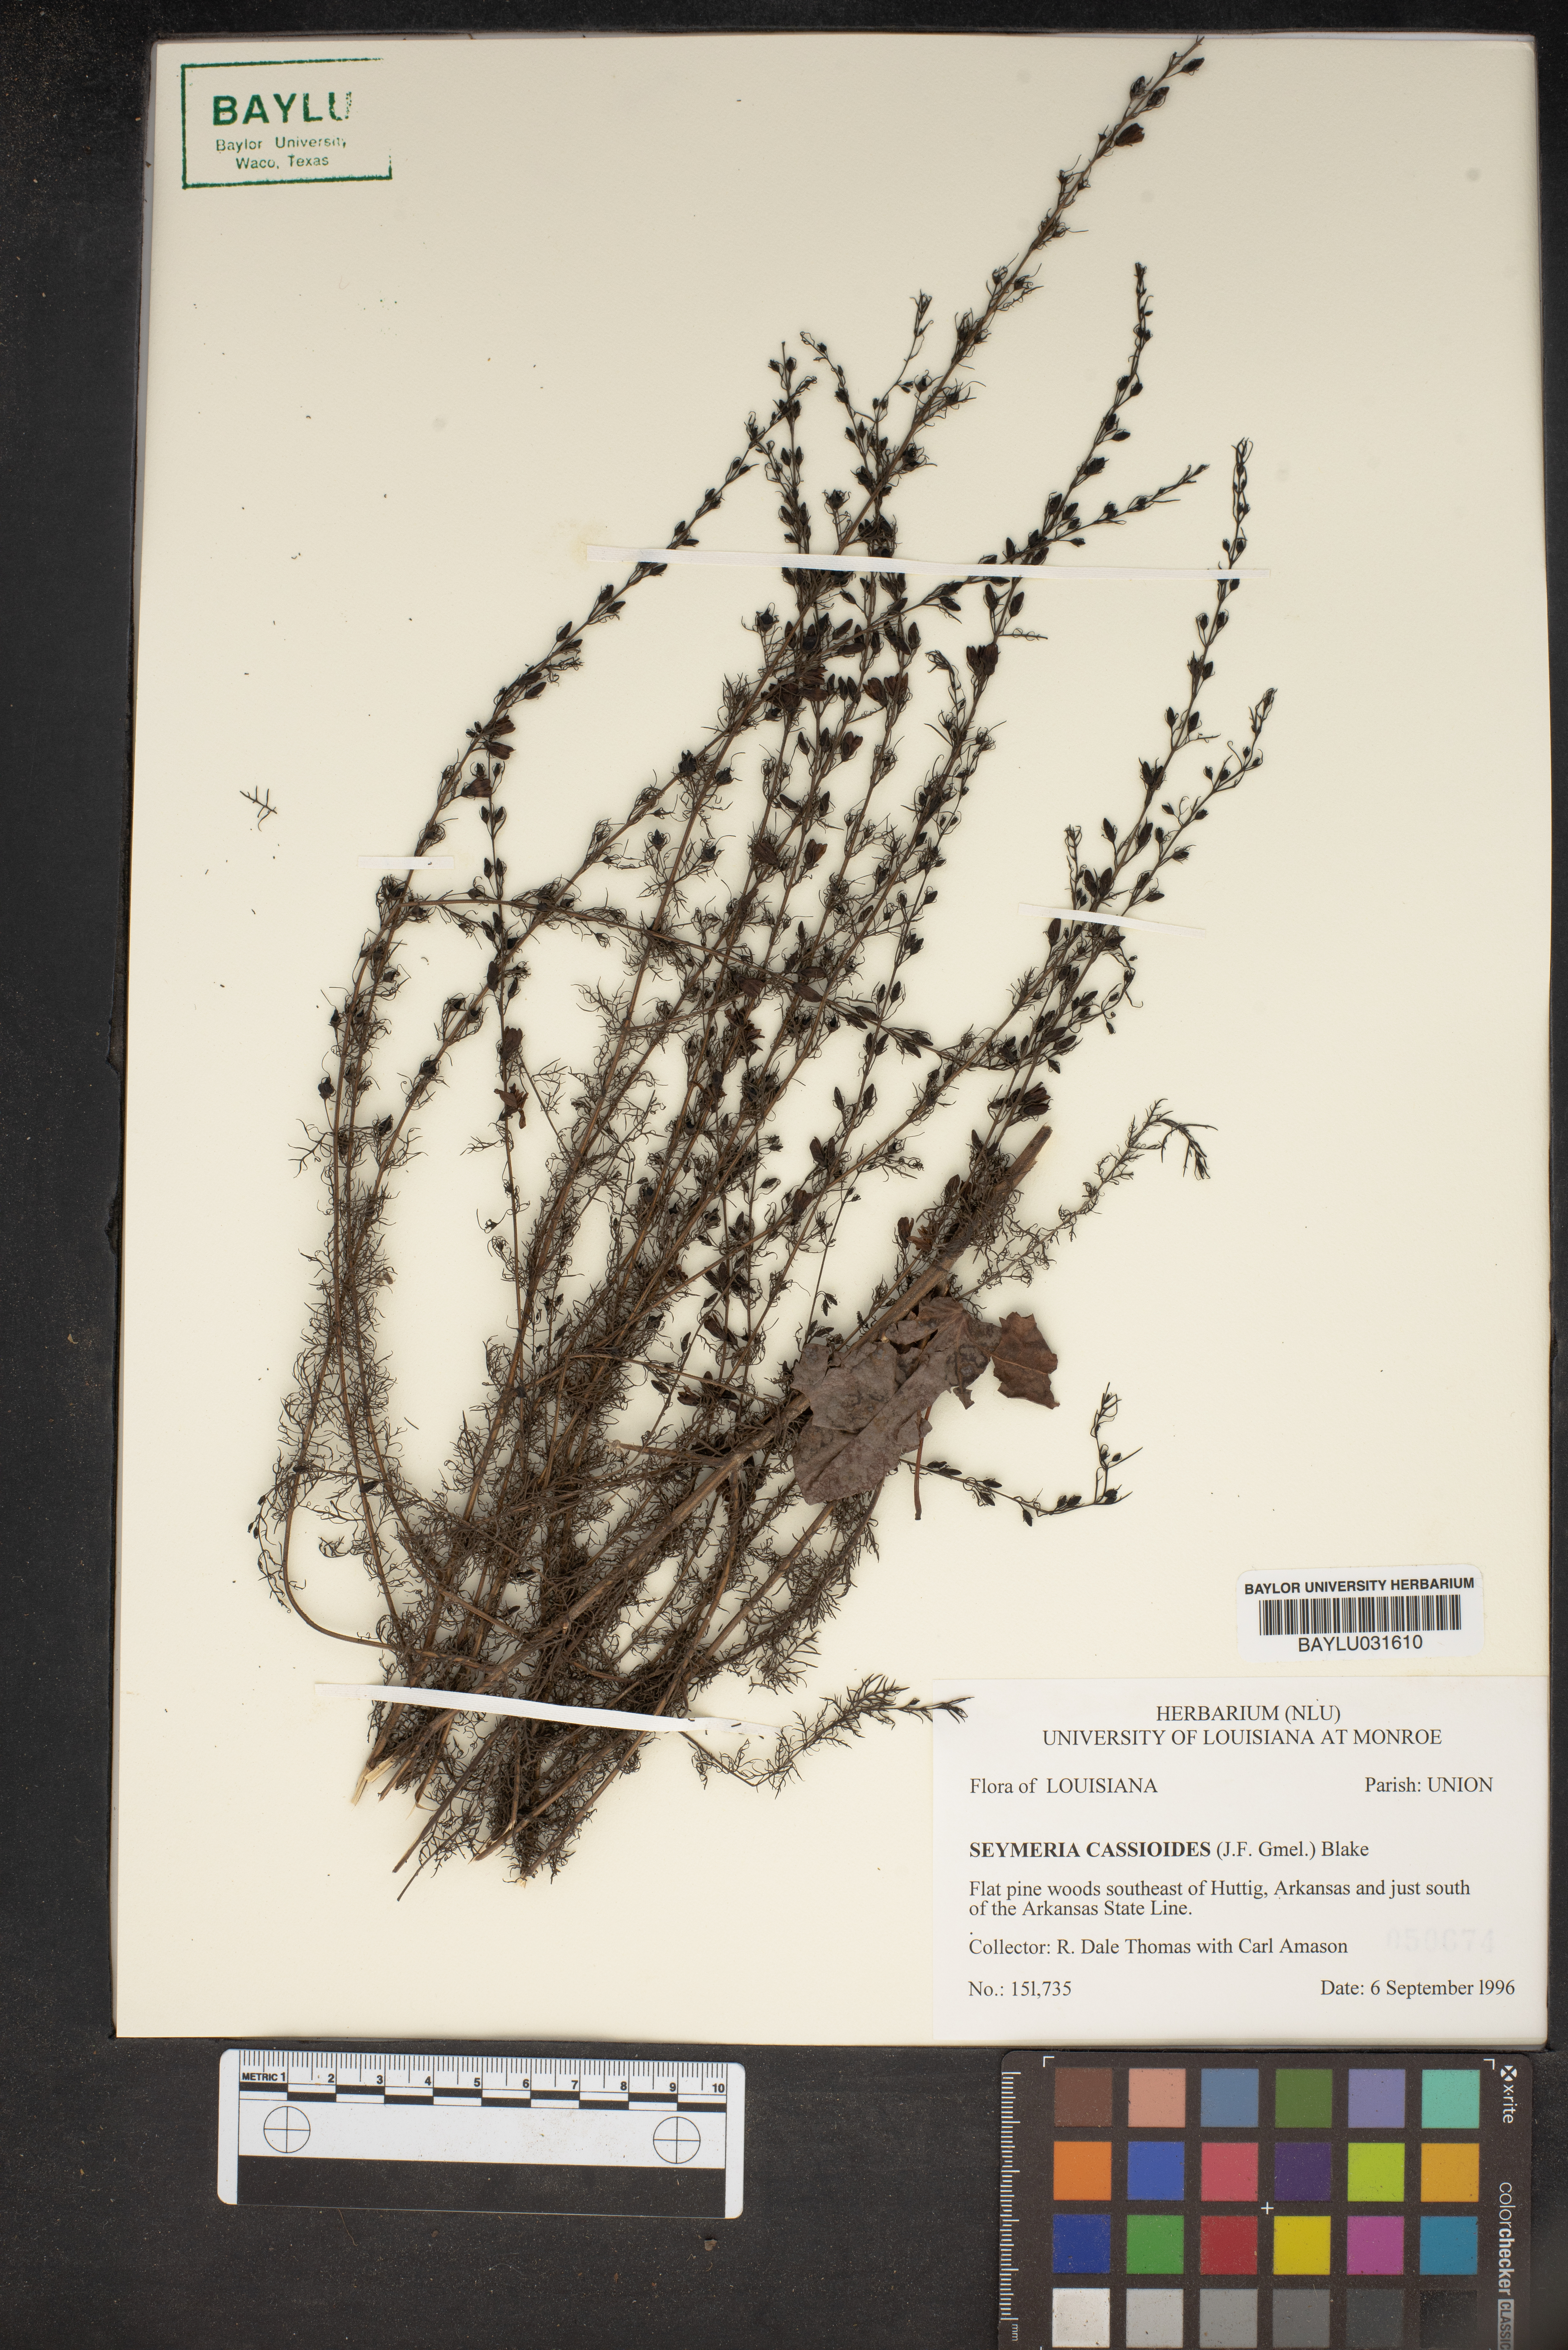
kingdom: Plantae
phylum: Tracheophyta
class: Magnoliopsida
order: Lamiales
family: Orobanchaceae
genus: Seymeria
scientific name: Seymeria cassioides
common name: Yaupon black-senna
